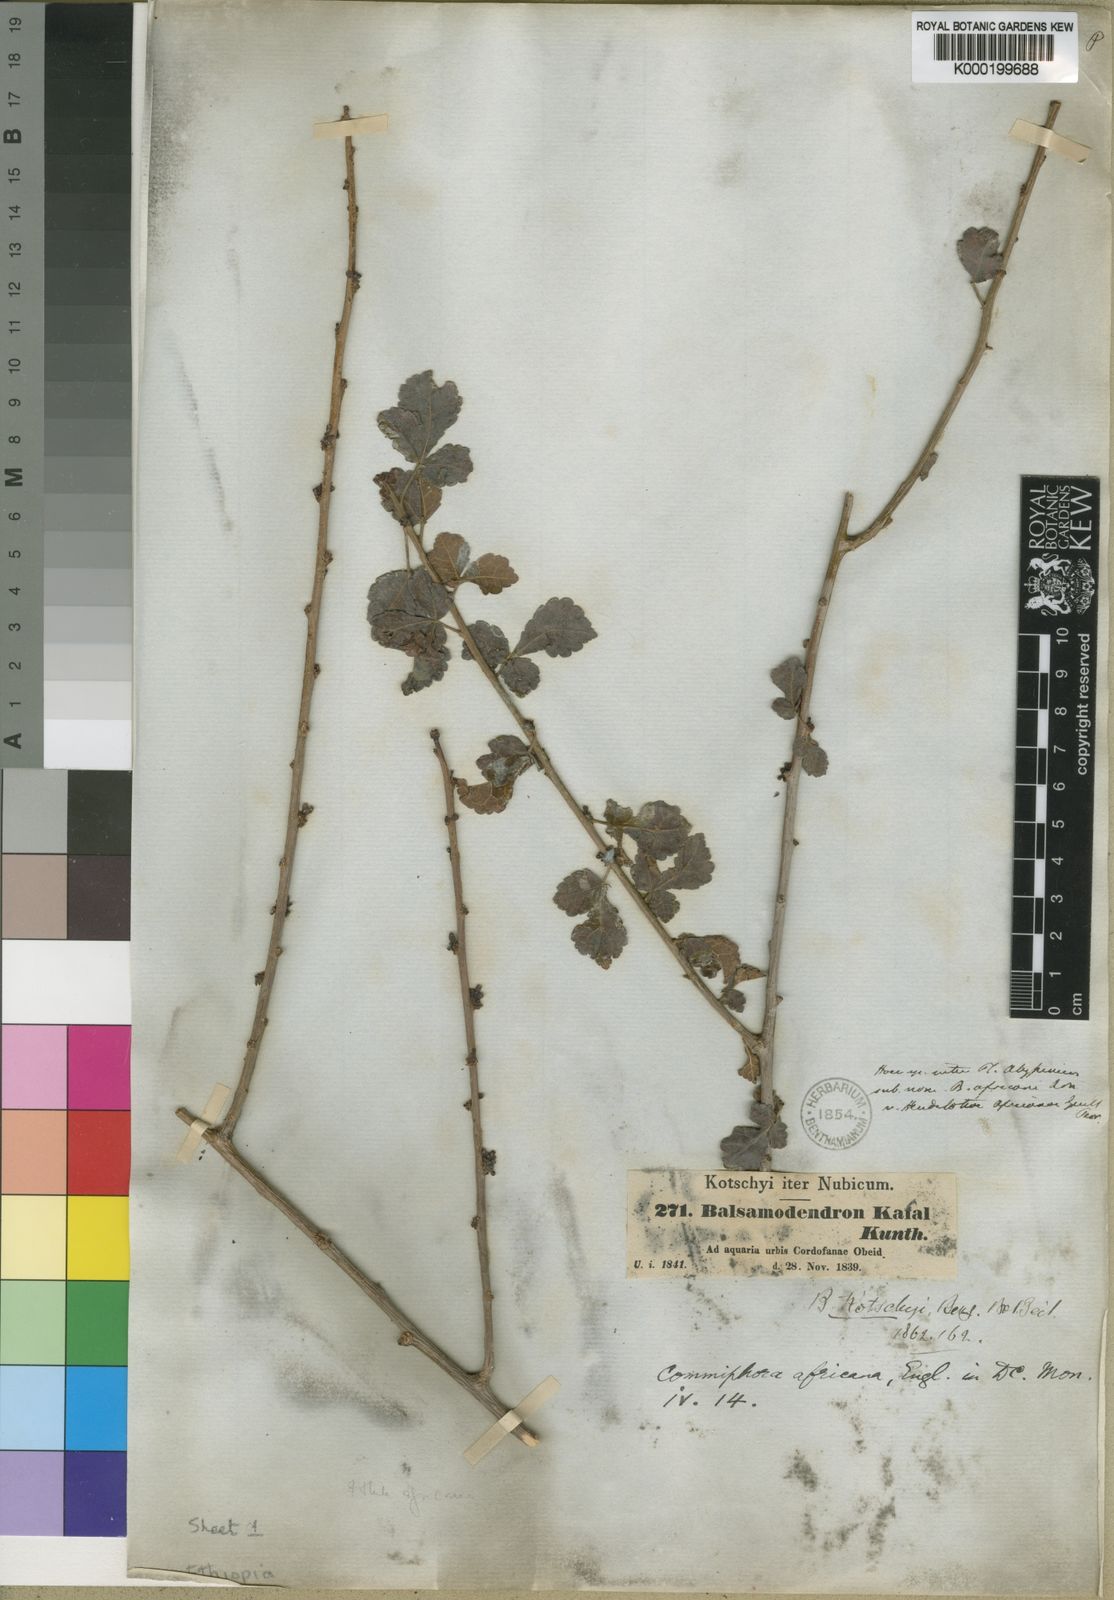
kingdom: Plantae
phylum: Tracheophyta
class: Magnoliopsida
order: Sapindales
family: Burseraceae
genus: Commiphora
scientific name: Commiphora africana
